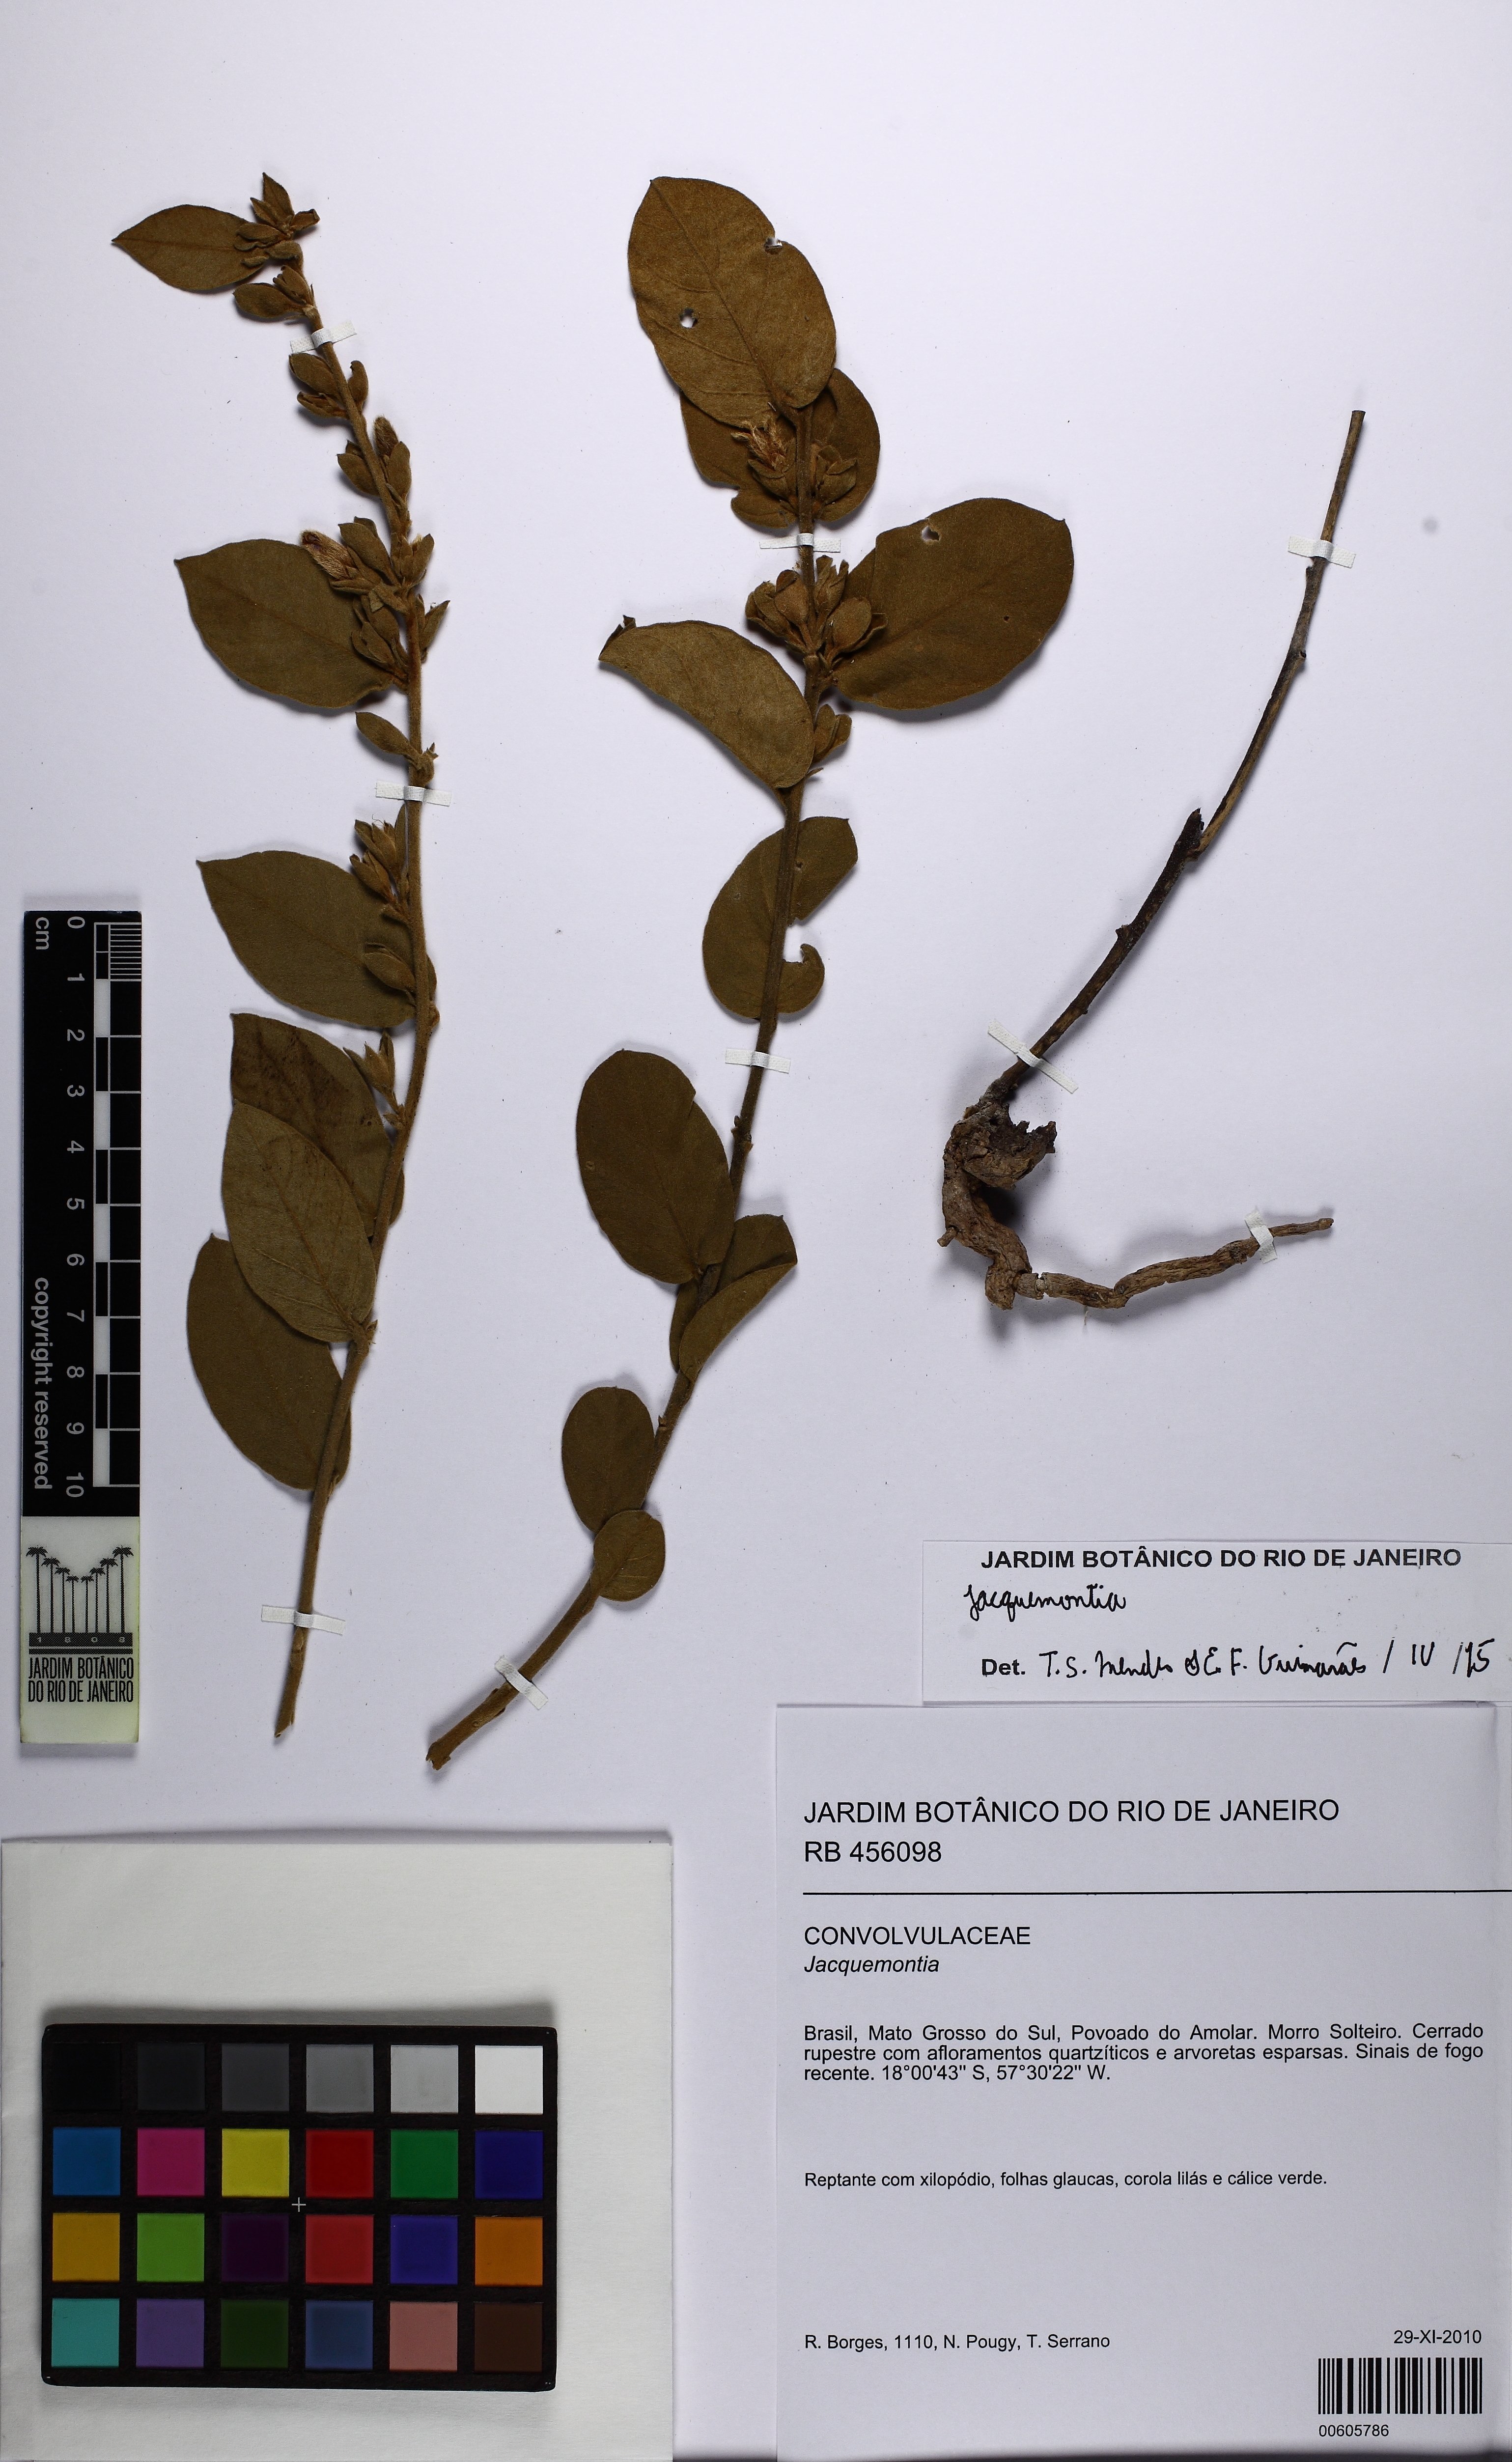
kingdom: Plantae
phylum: Tracheophyta
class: Magnoliopsida
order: Solanales
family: Convolvulaceae
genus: Bonamia
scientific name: Bonamia rosiewiseae
